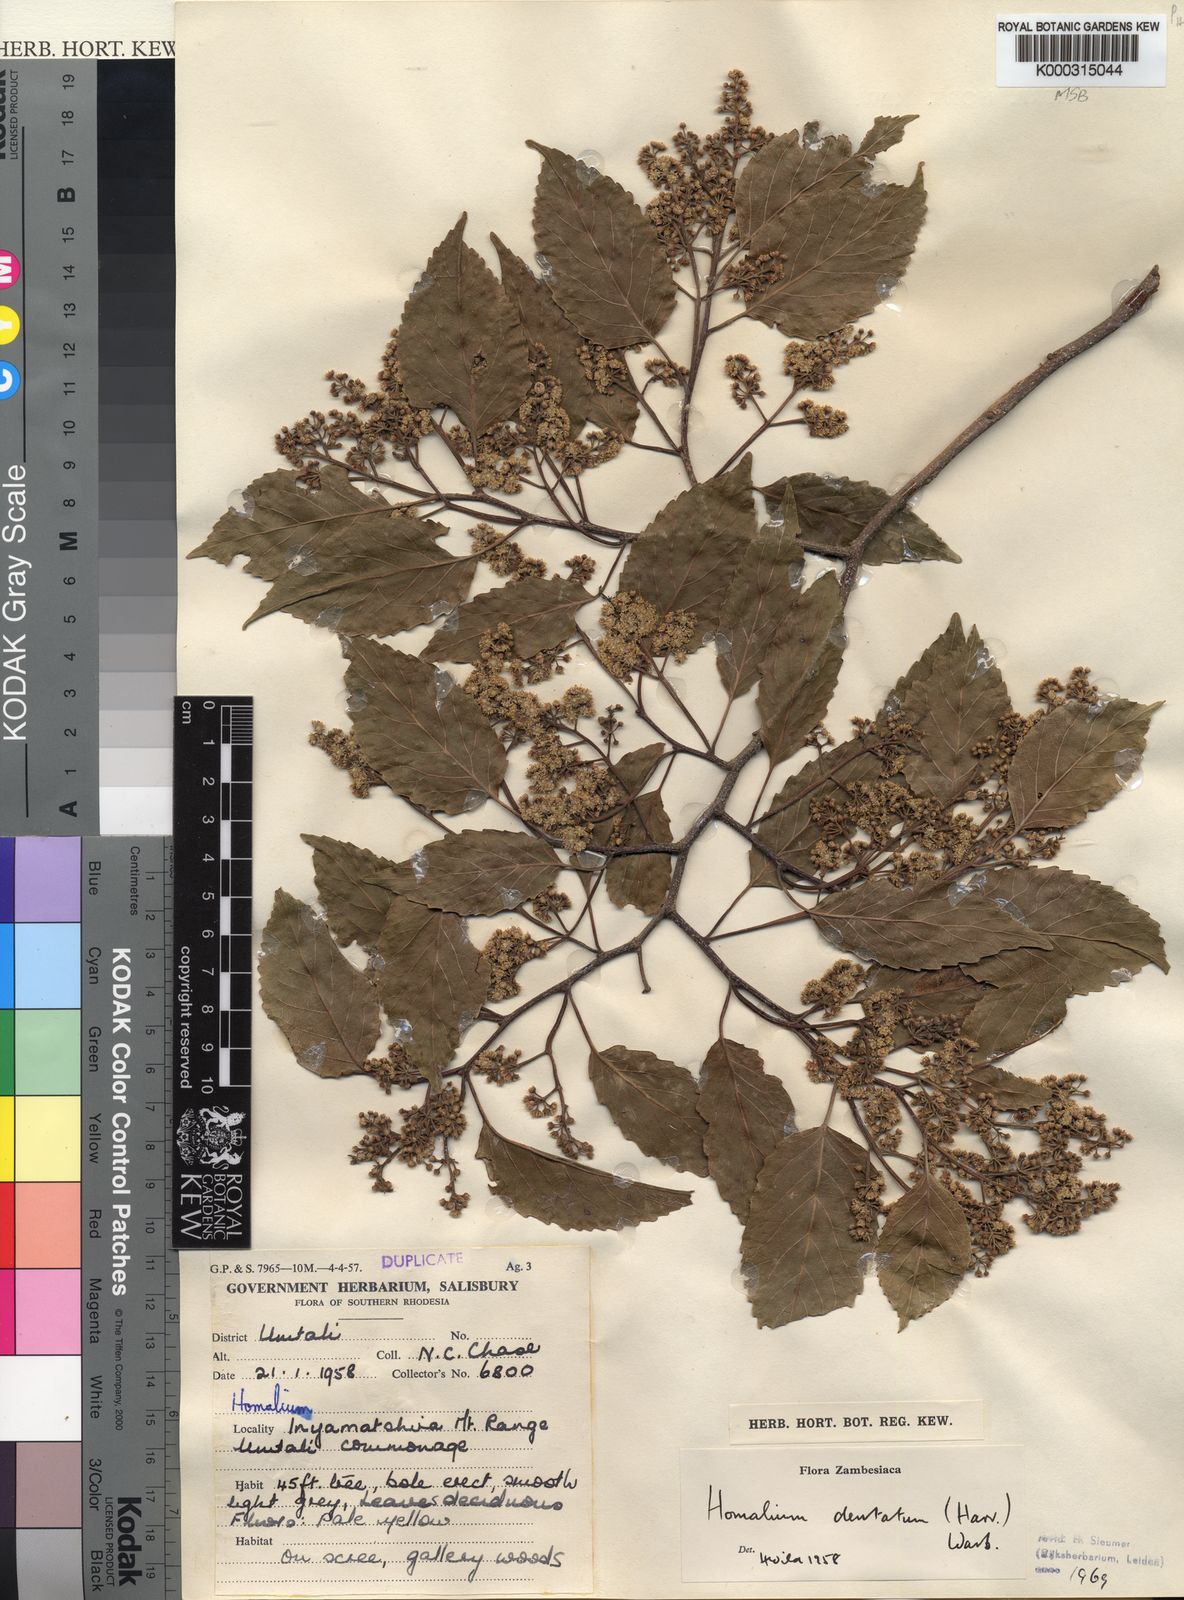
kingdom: Plantae
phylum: Tracheophyta
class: Magnoliopsida
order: Malpighiales
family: Salicaceae
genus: Homalium
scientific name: Homalium dentatum
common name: Brown ironwood
